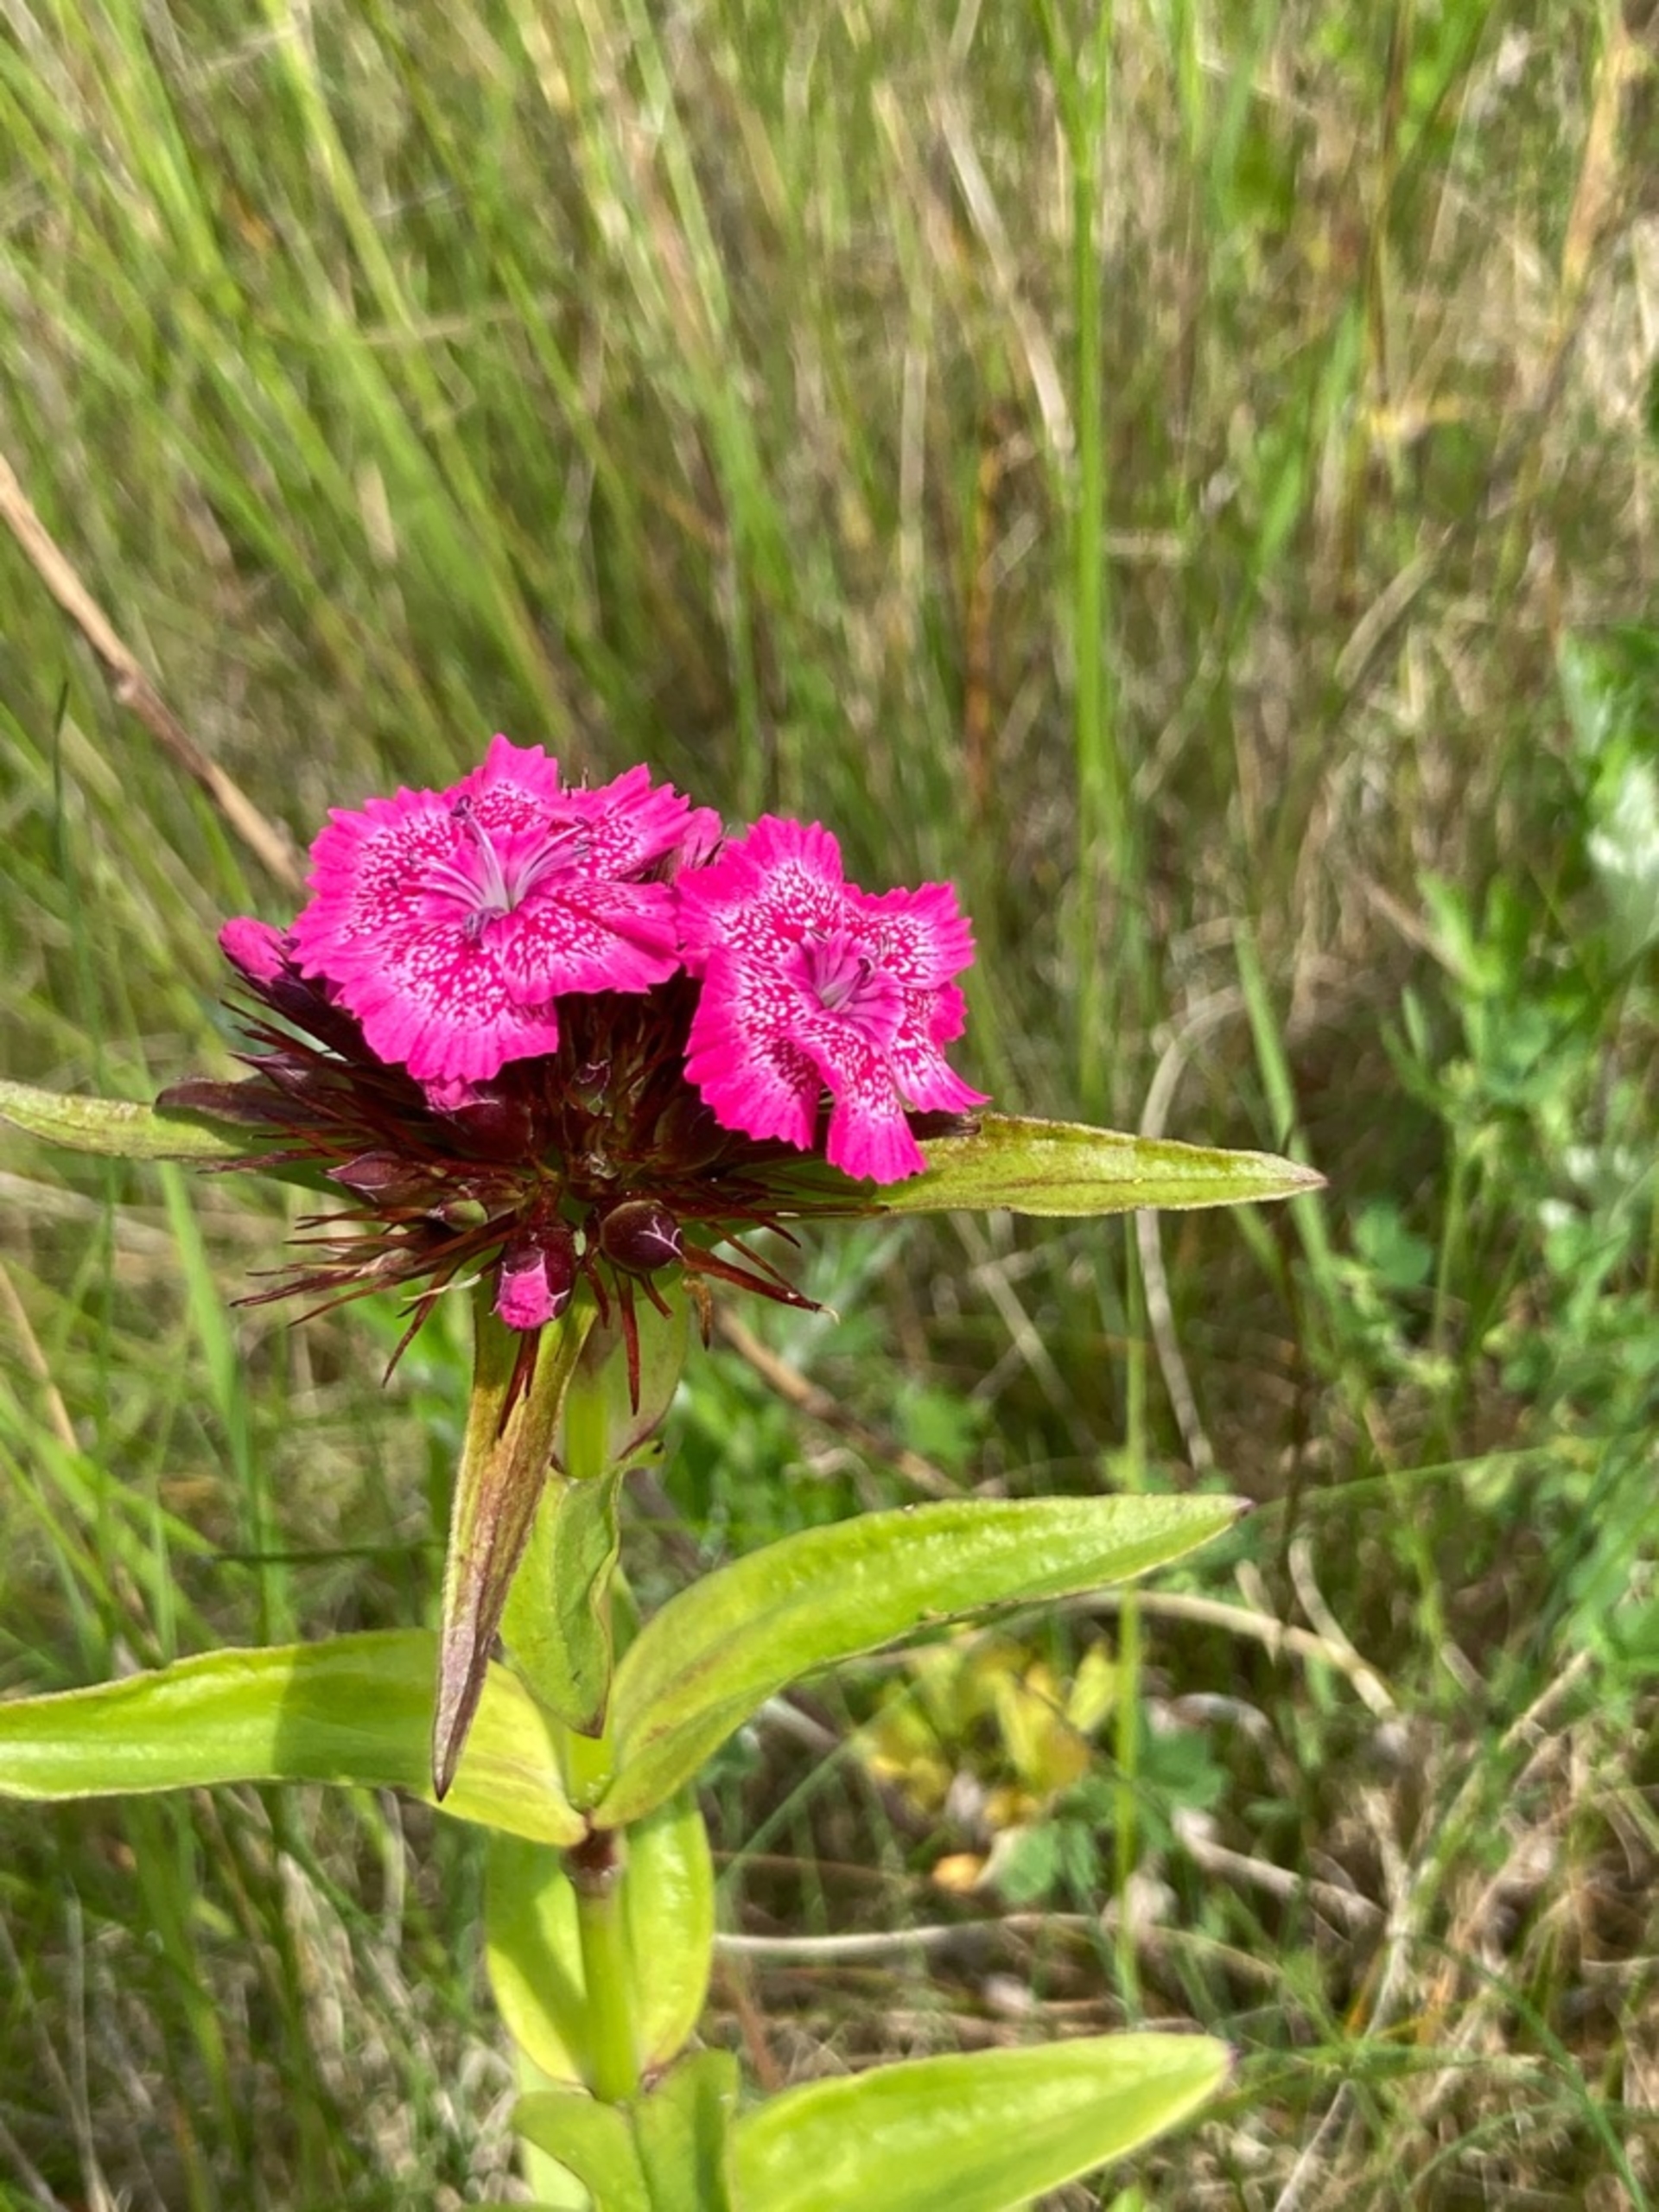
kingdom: Plantae
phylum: Tracheophyta
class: Magnoliopsida
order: Caryophyllales
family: Caryophyllaceae
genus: Dianthus
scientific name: Dianthus barbatus
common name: Studenter-nellike
